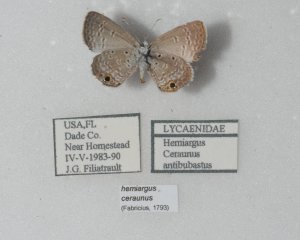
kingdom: Animalia
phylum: Arthropoda
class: Insecta
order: Lepidoptera
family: Lycaenidae
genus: Hemiargus
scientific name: Hemiargus ceraunus
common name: Ceraunus Blue
